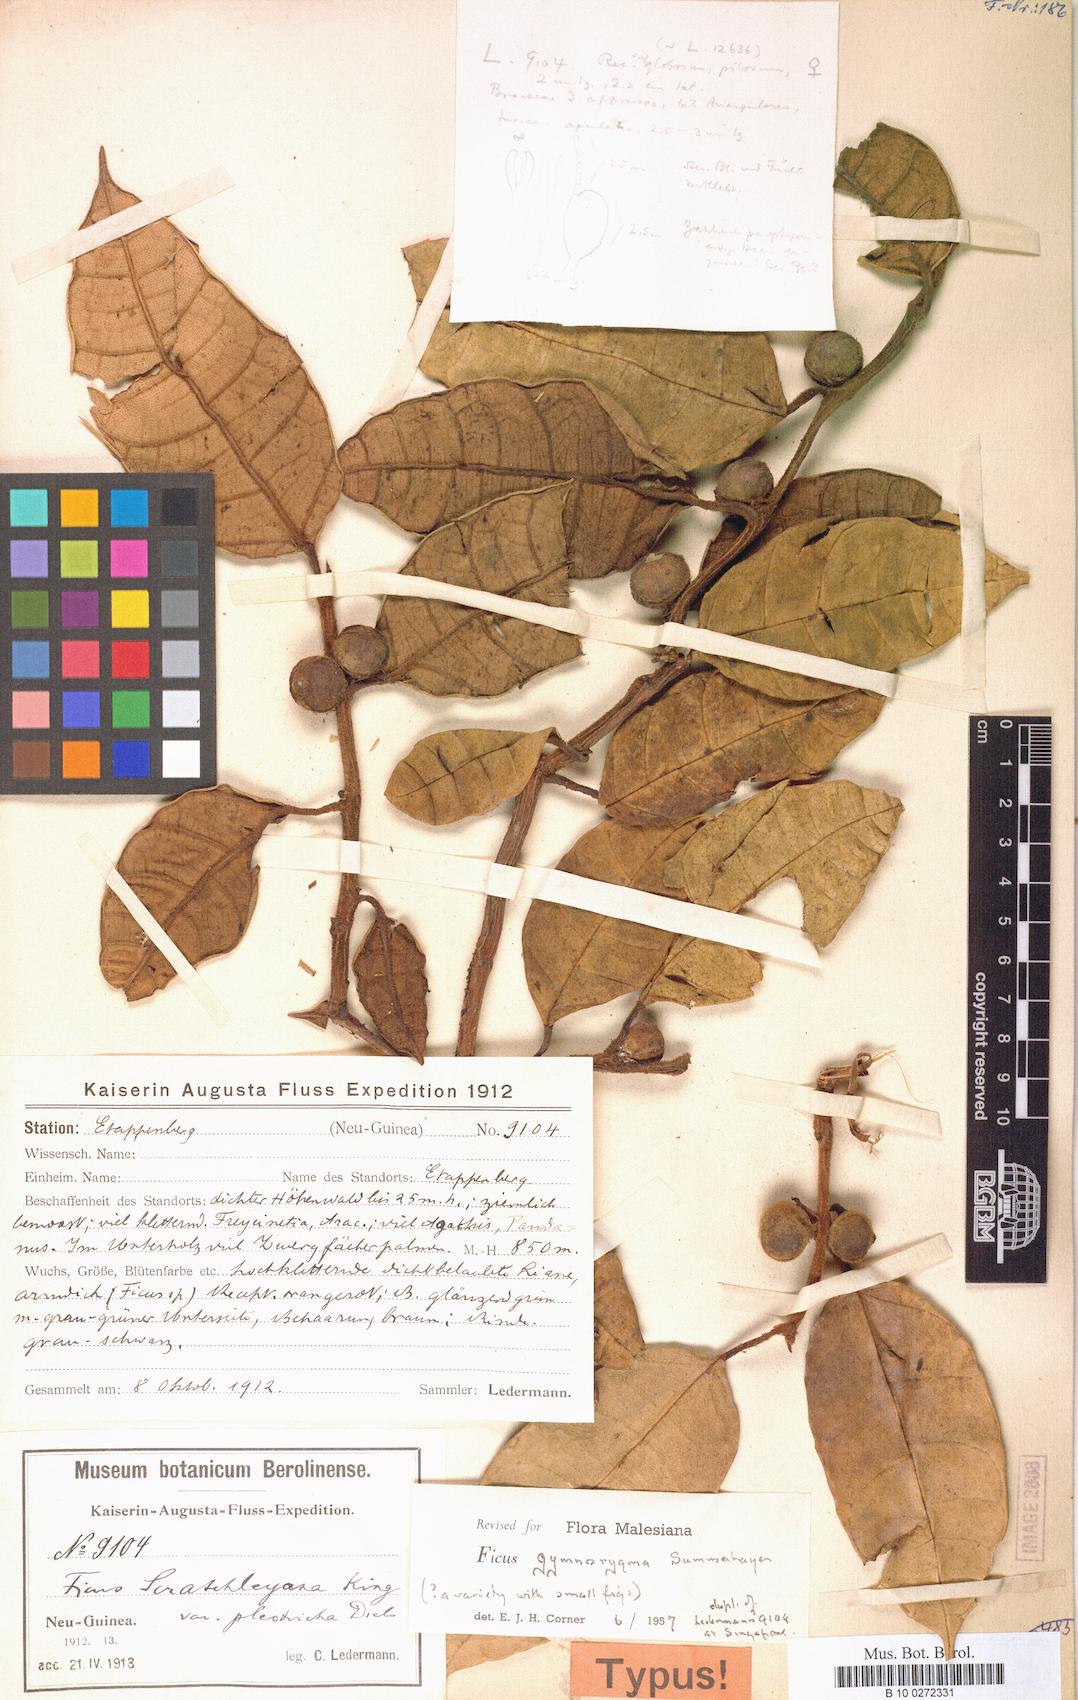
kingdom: Plantae
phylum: Tracheophyta
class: Magnoliopsida
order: Rosales
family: Moraceae
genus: Ficus
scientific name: Ficus gymnorygma
